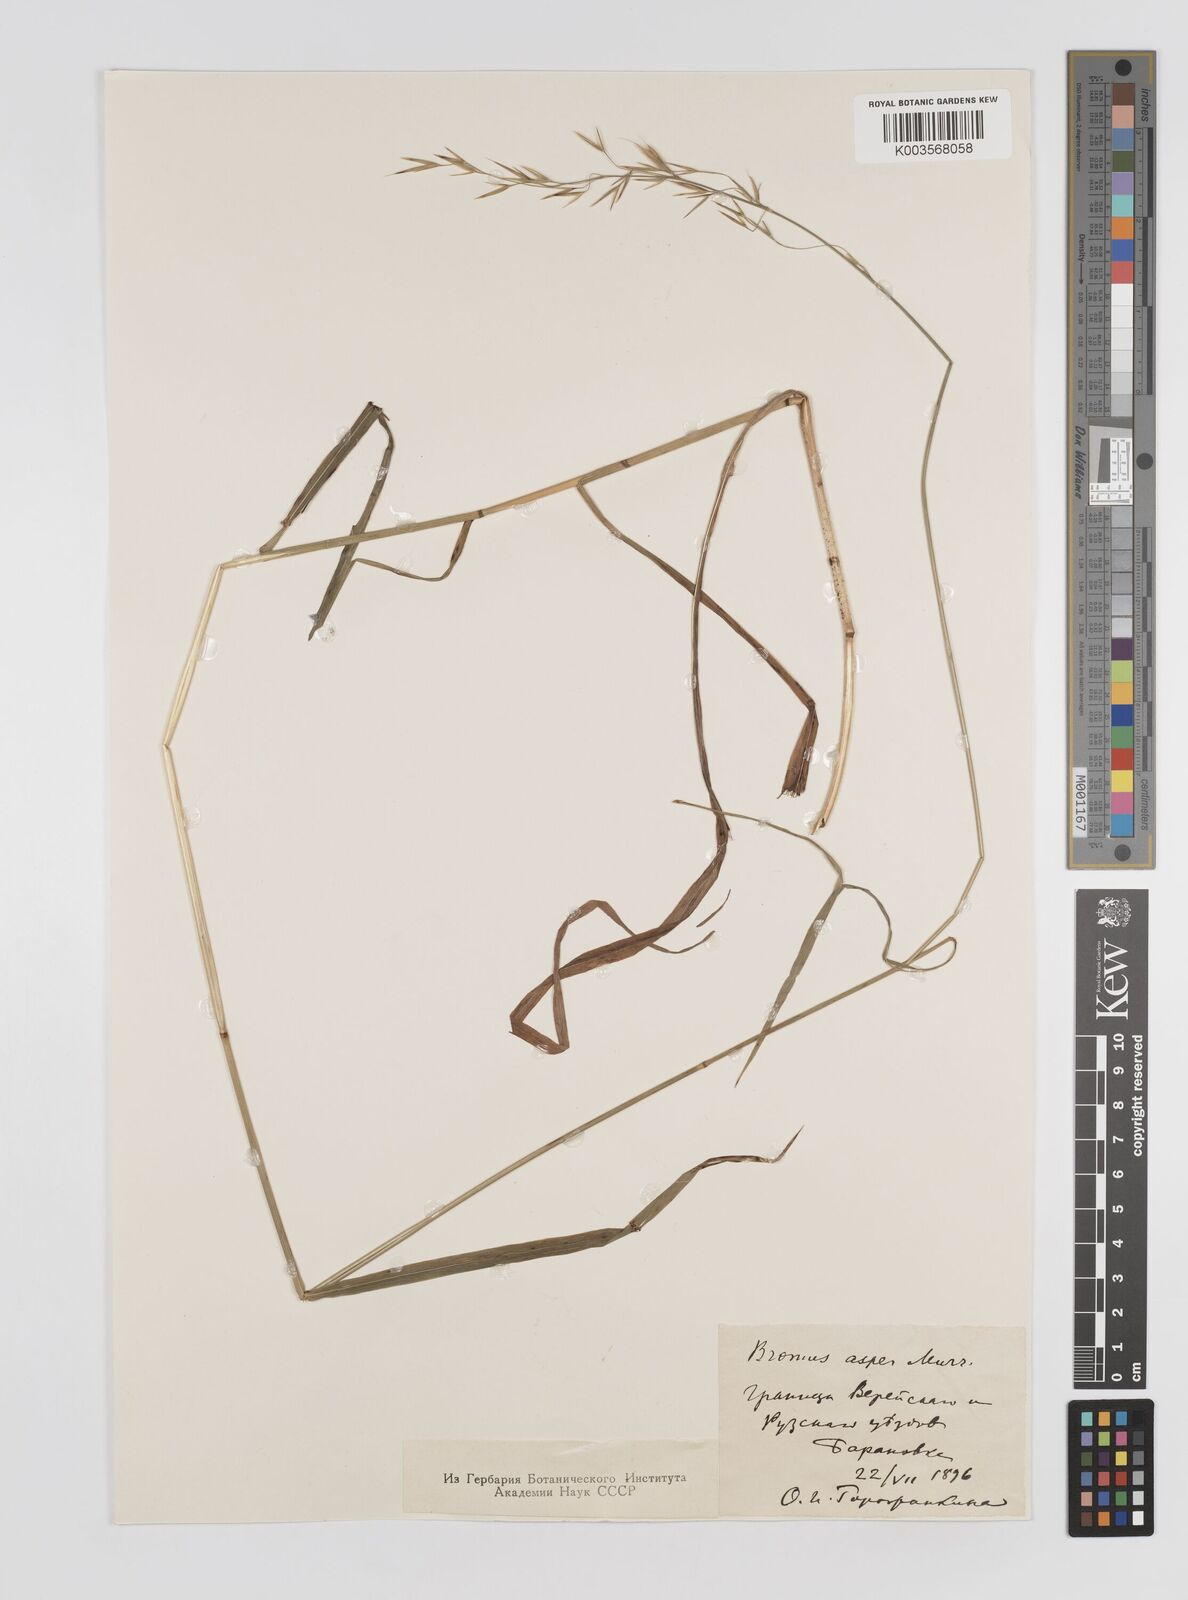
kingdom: Plantae
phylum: Tracheophyta
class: Liliopsida
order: Poales
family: Poaceae
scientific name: Poaceae
